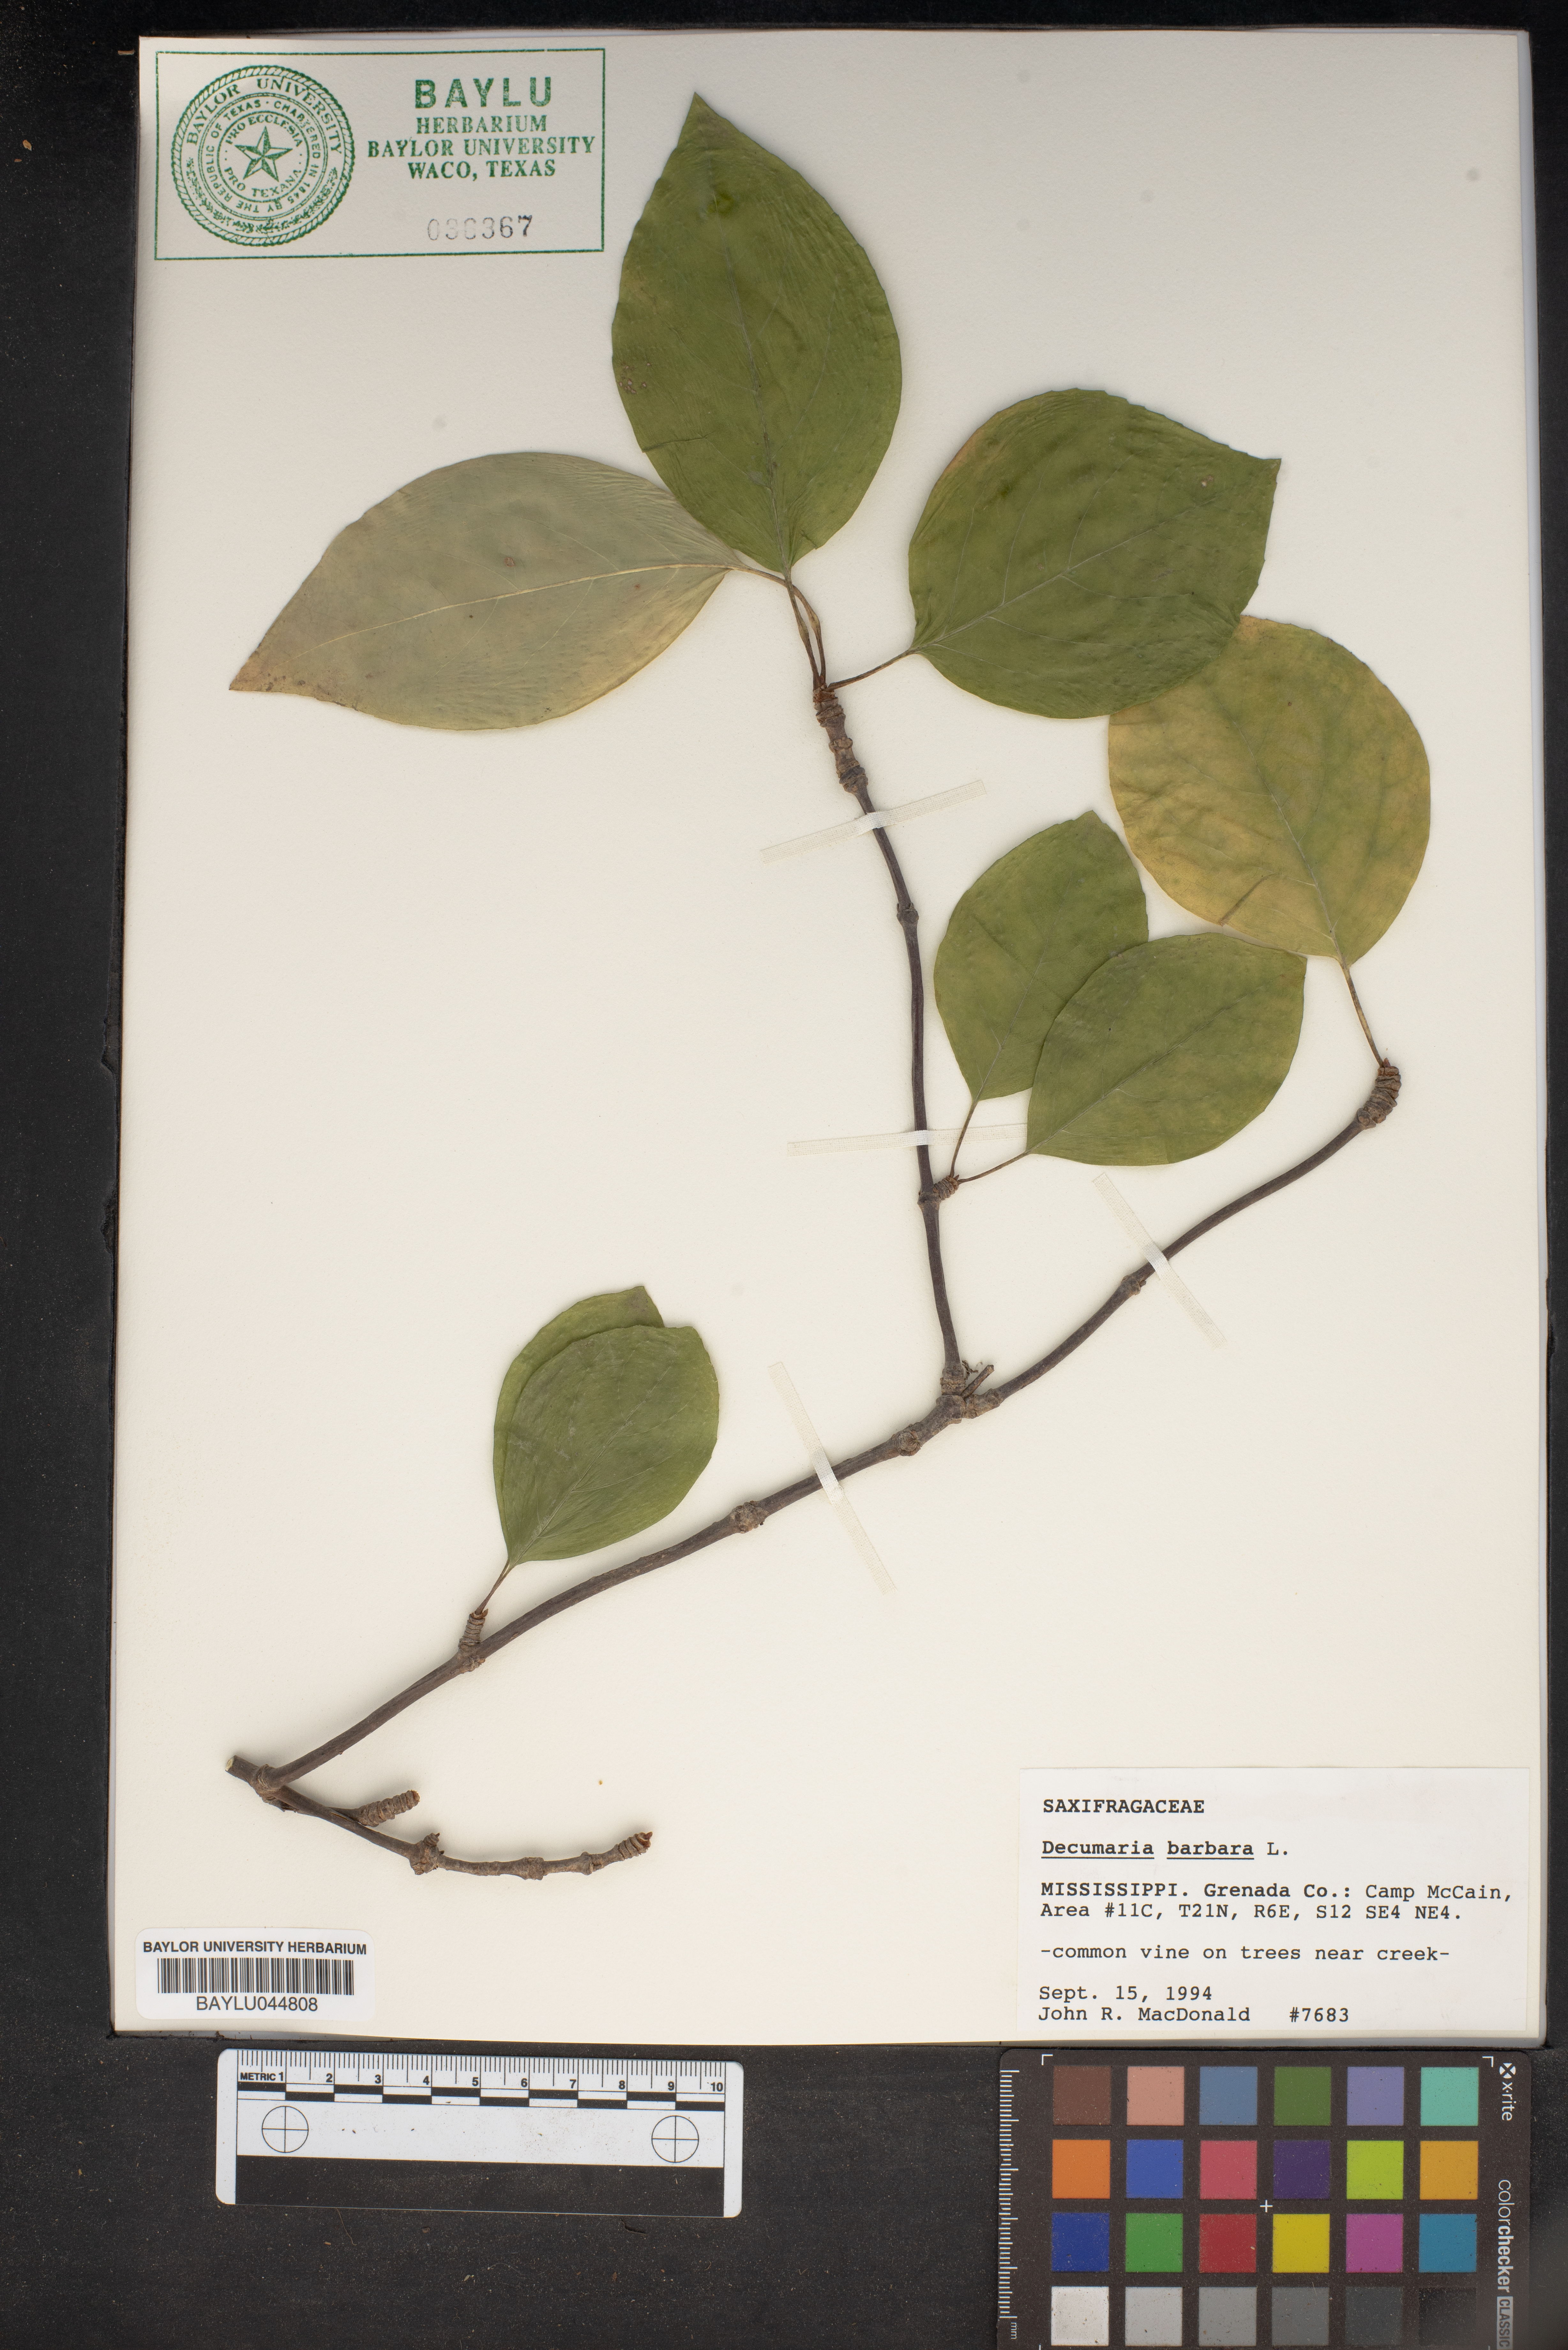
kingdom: Plantae
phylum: Tracheophyta
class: Magnoliopsida
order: Cornales
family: Hydrangeaceae
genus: Hydrangea
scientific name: Hydrangea barbara
